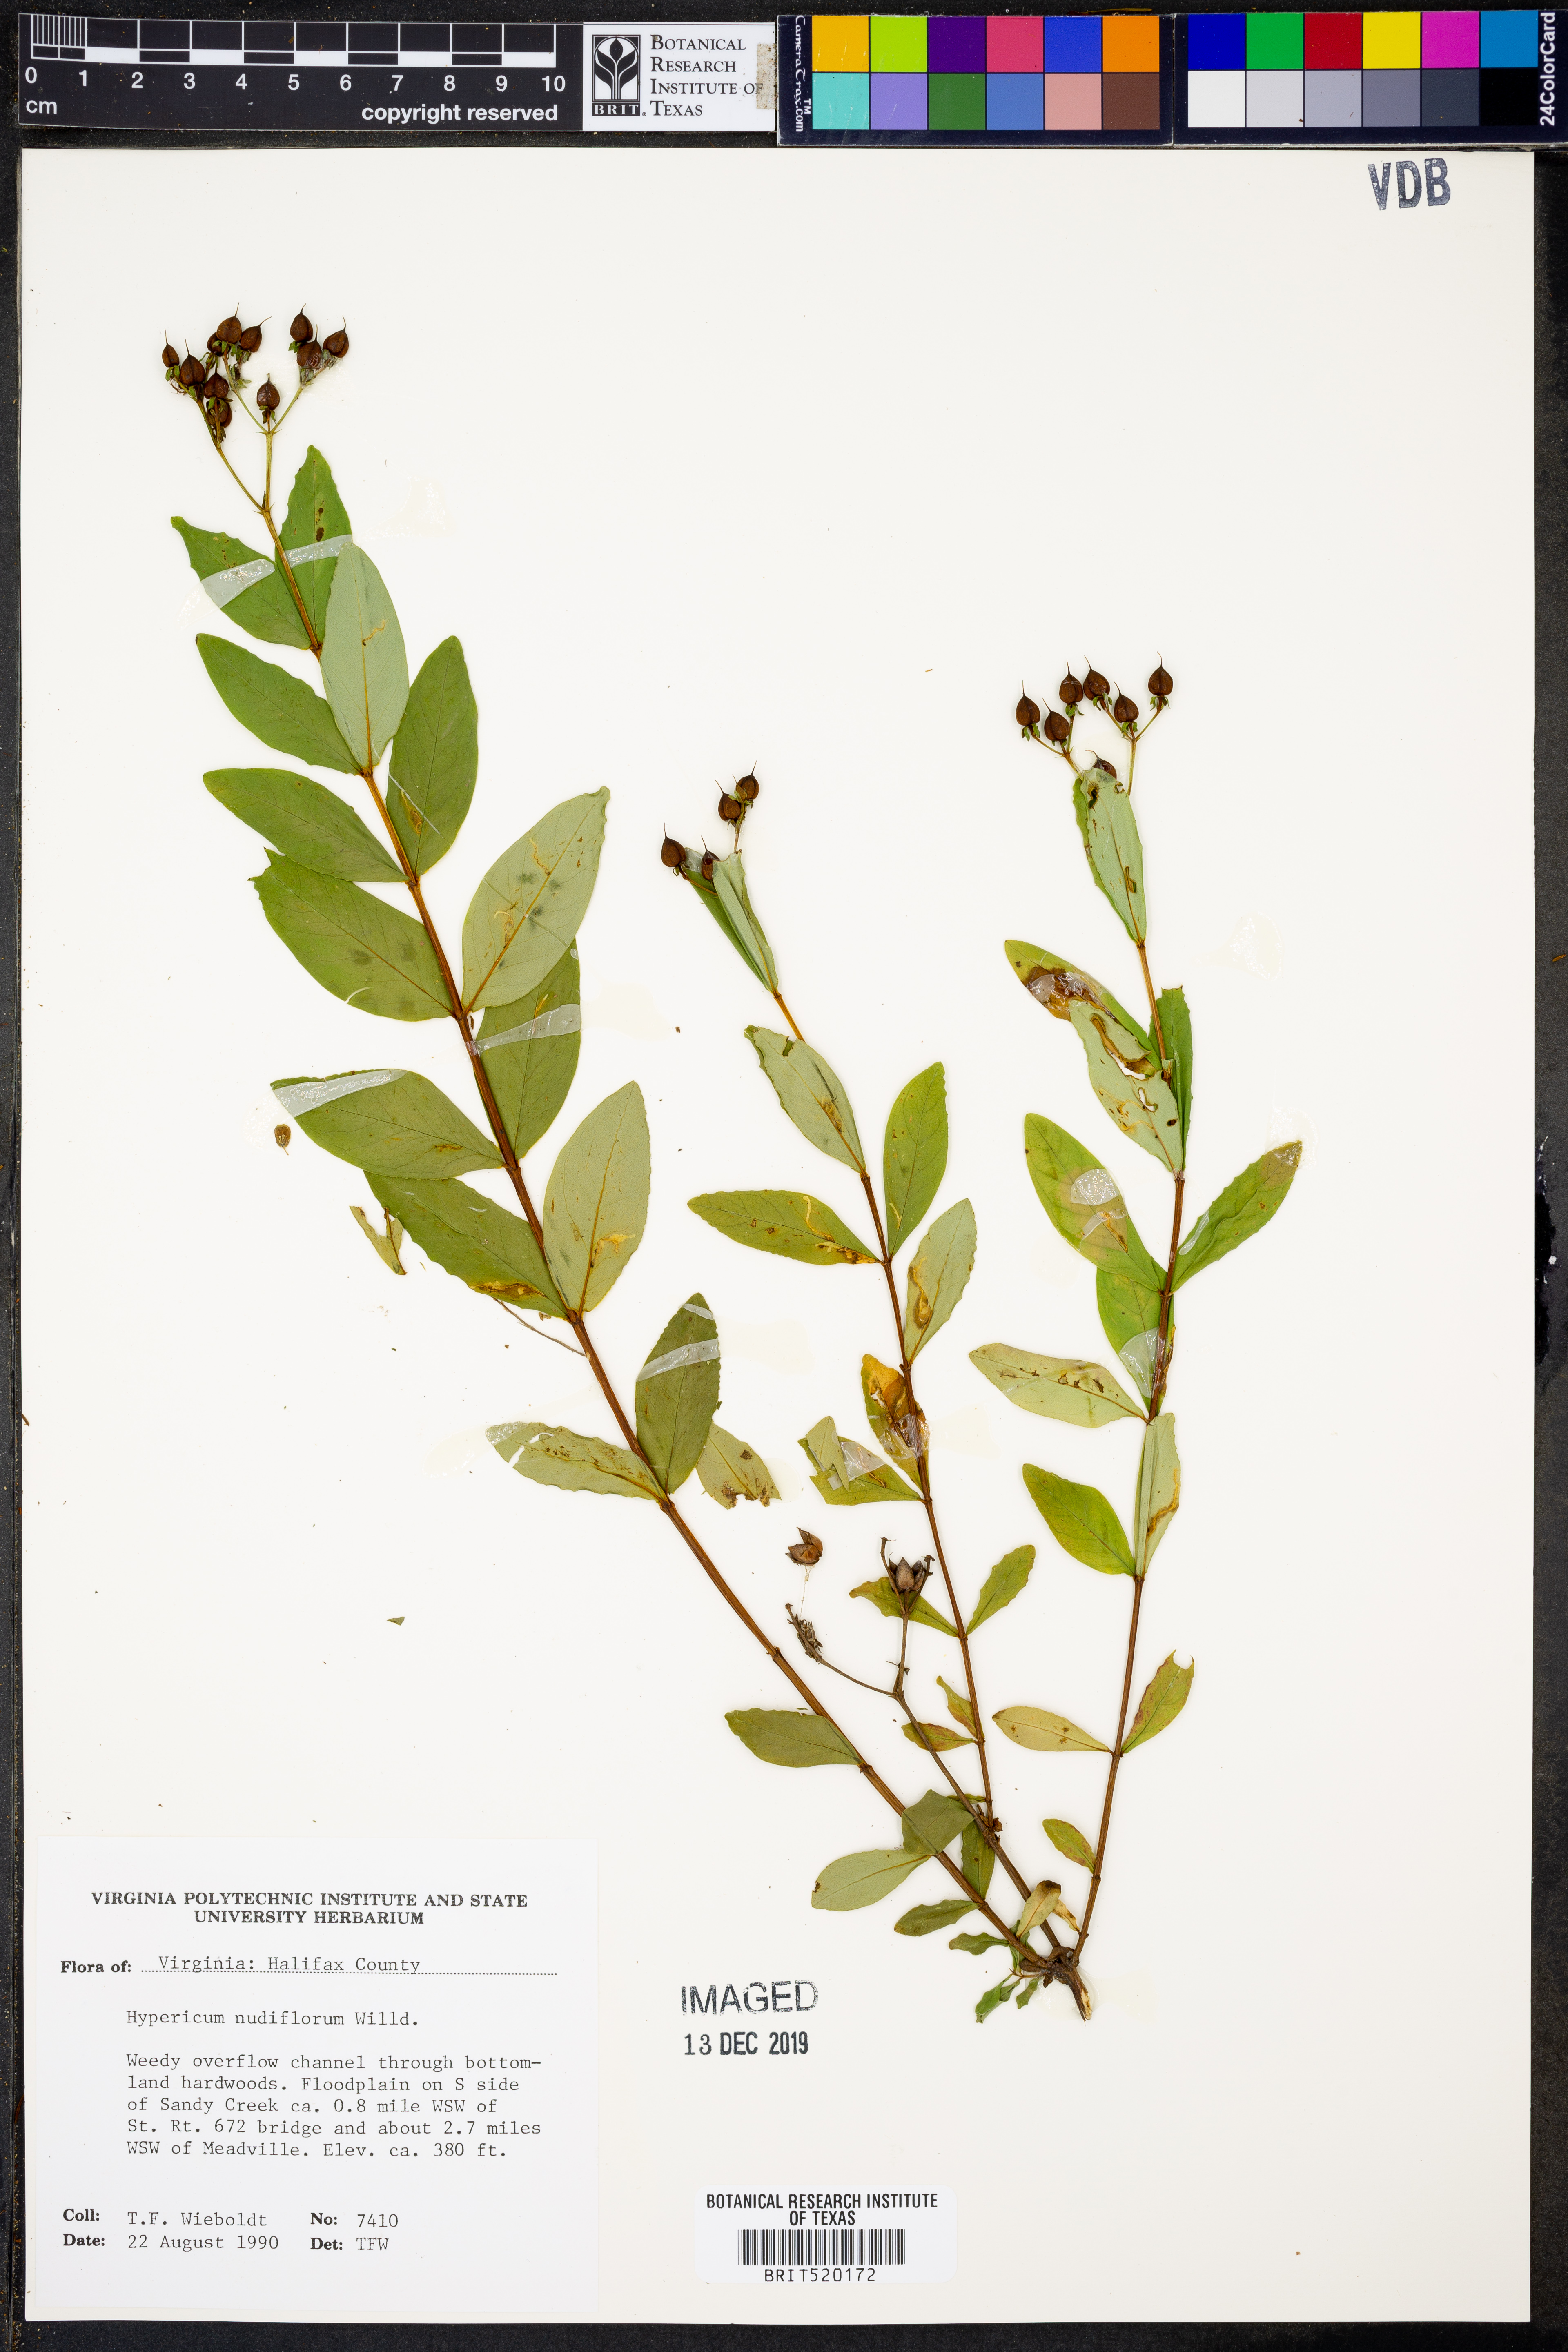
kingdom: Plantae
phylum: Tracheophyta
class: Magnoliopsida
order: Malpighiales
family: Hypericaceae
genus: Hypericum
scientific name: Hypericum nudiflorum
